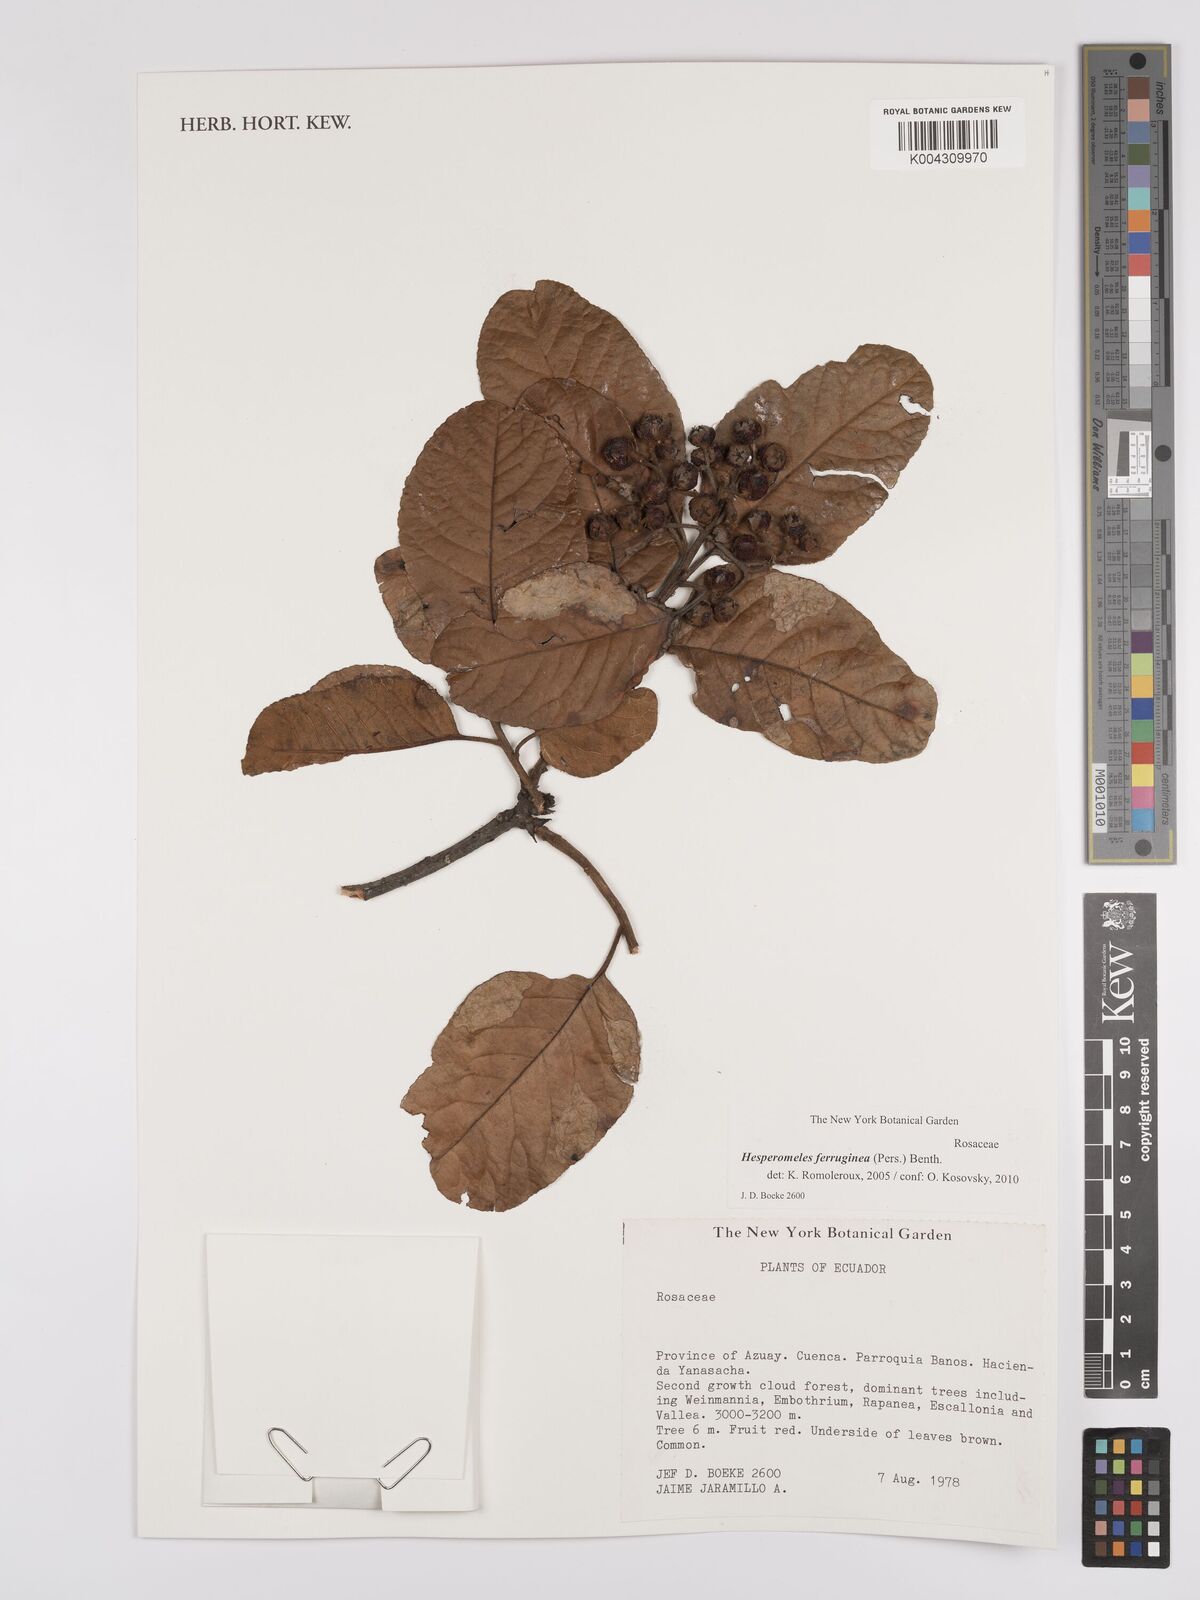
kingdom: Plantae
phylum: Tracheophyta
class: Magnoliopsida
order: Rosales
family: Rosaceae
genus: Hesperomeles
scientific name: Hesperomeles ferruginea
